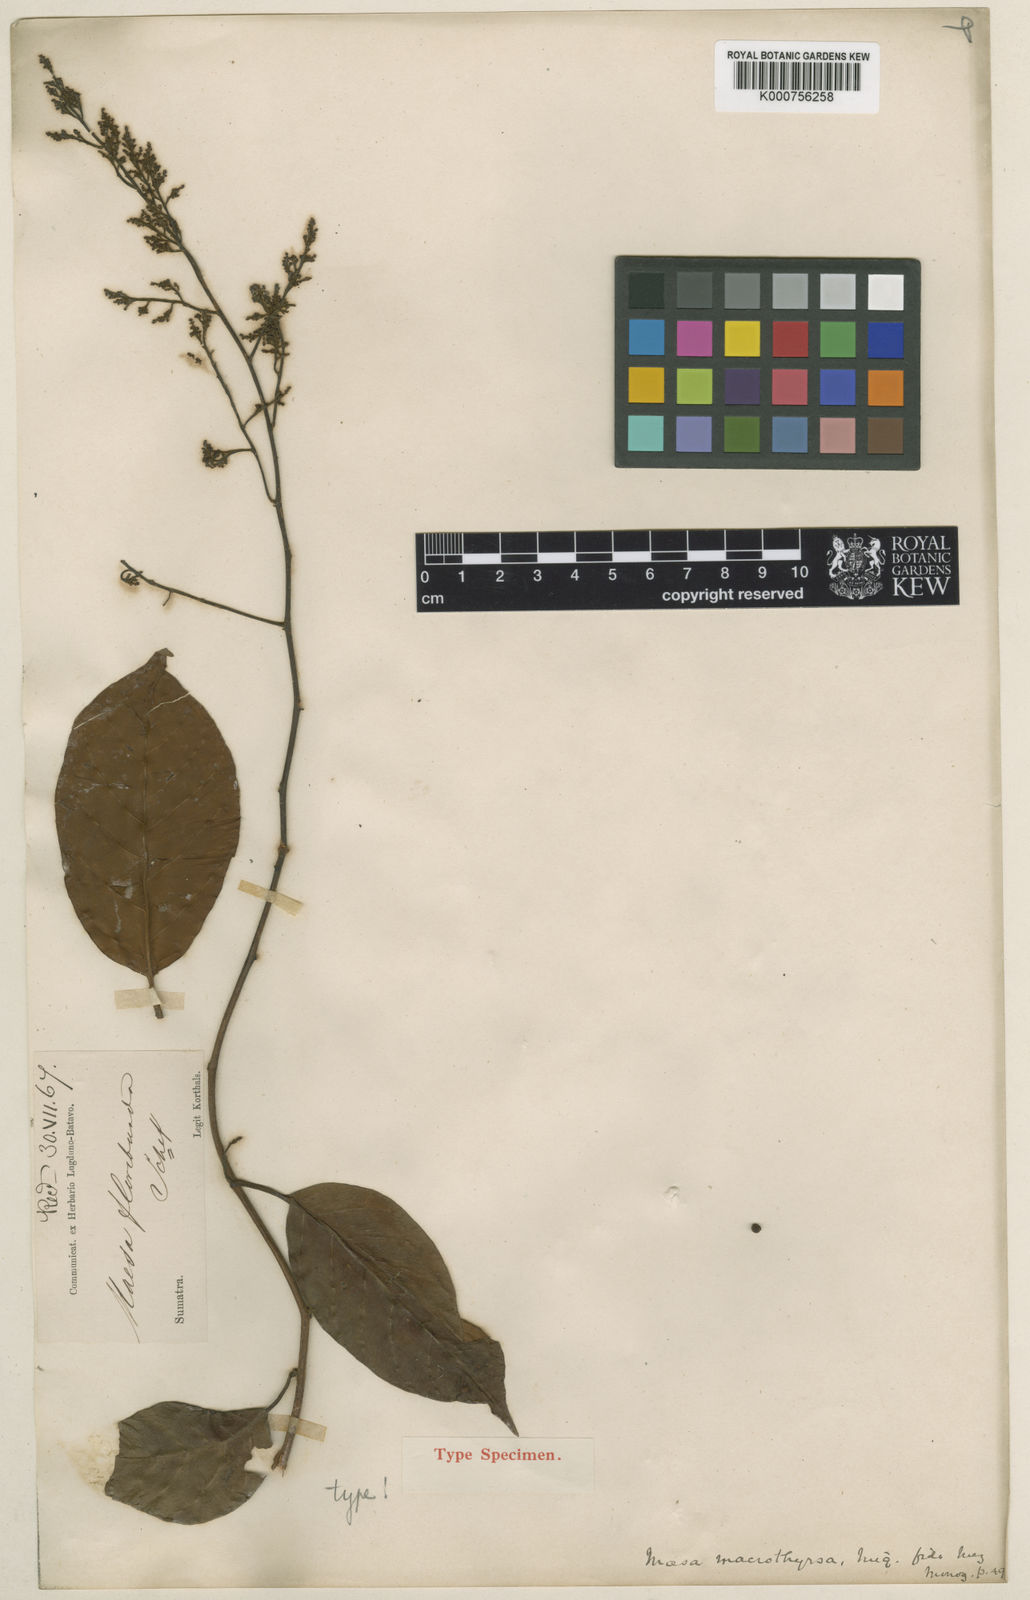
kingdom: Plantae
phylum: Tracheophyta
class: Magnoliopsida
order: Ericales
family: Primulaceae
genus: Maesa
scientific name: Maesa macrothyrsa
